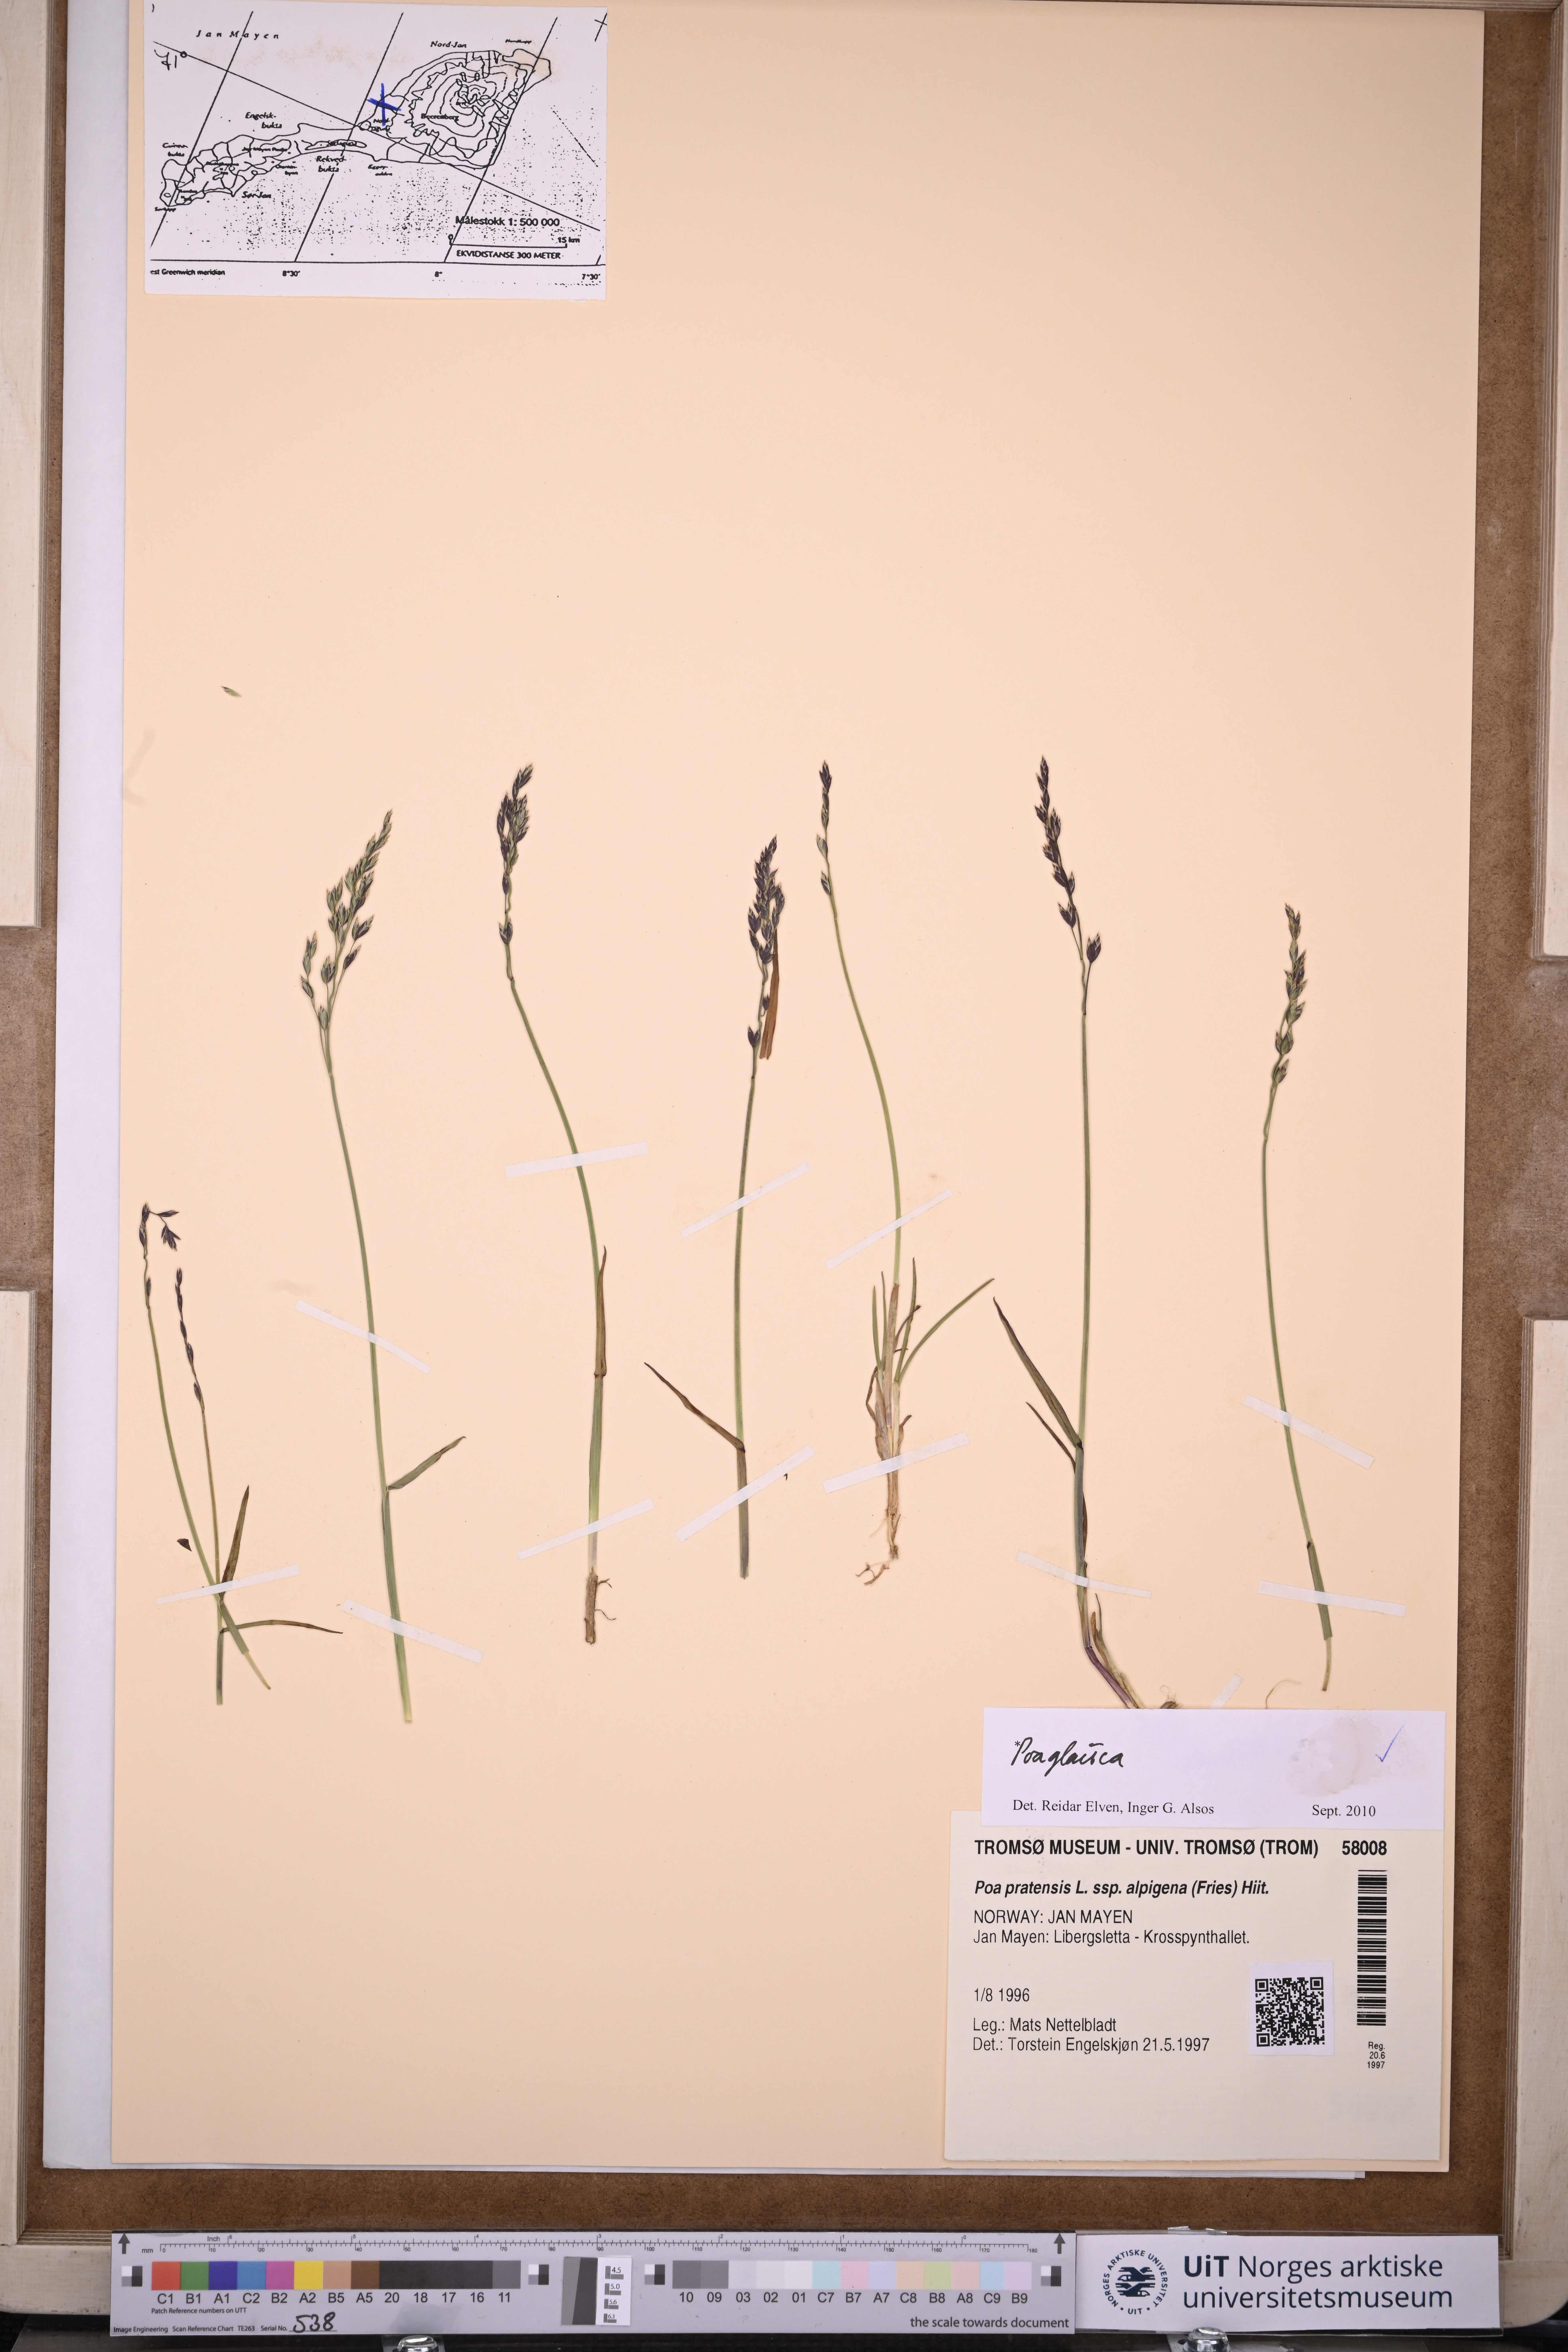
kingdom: Plantae
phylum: Tracheophyta
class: Liliopsida
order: Poales
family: Poaceae
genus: Poa
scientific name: Poa glauca
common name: Glaucous bluegrass
